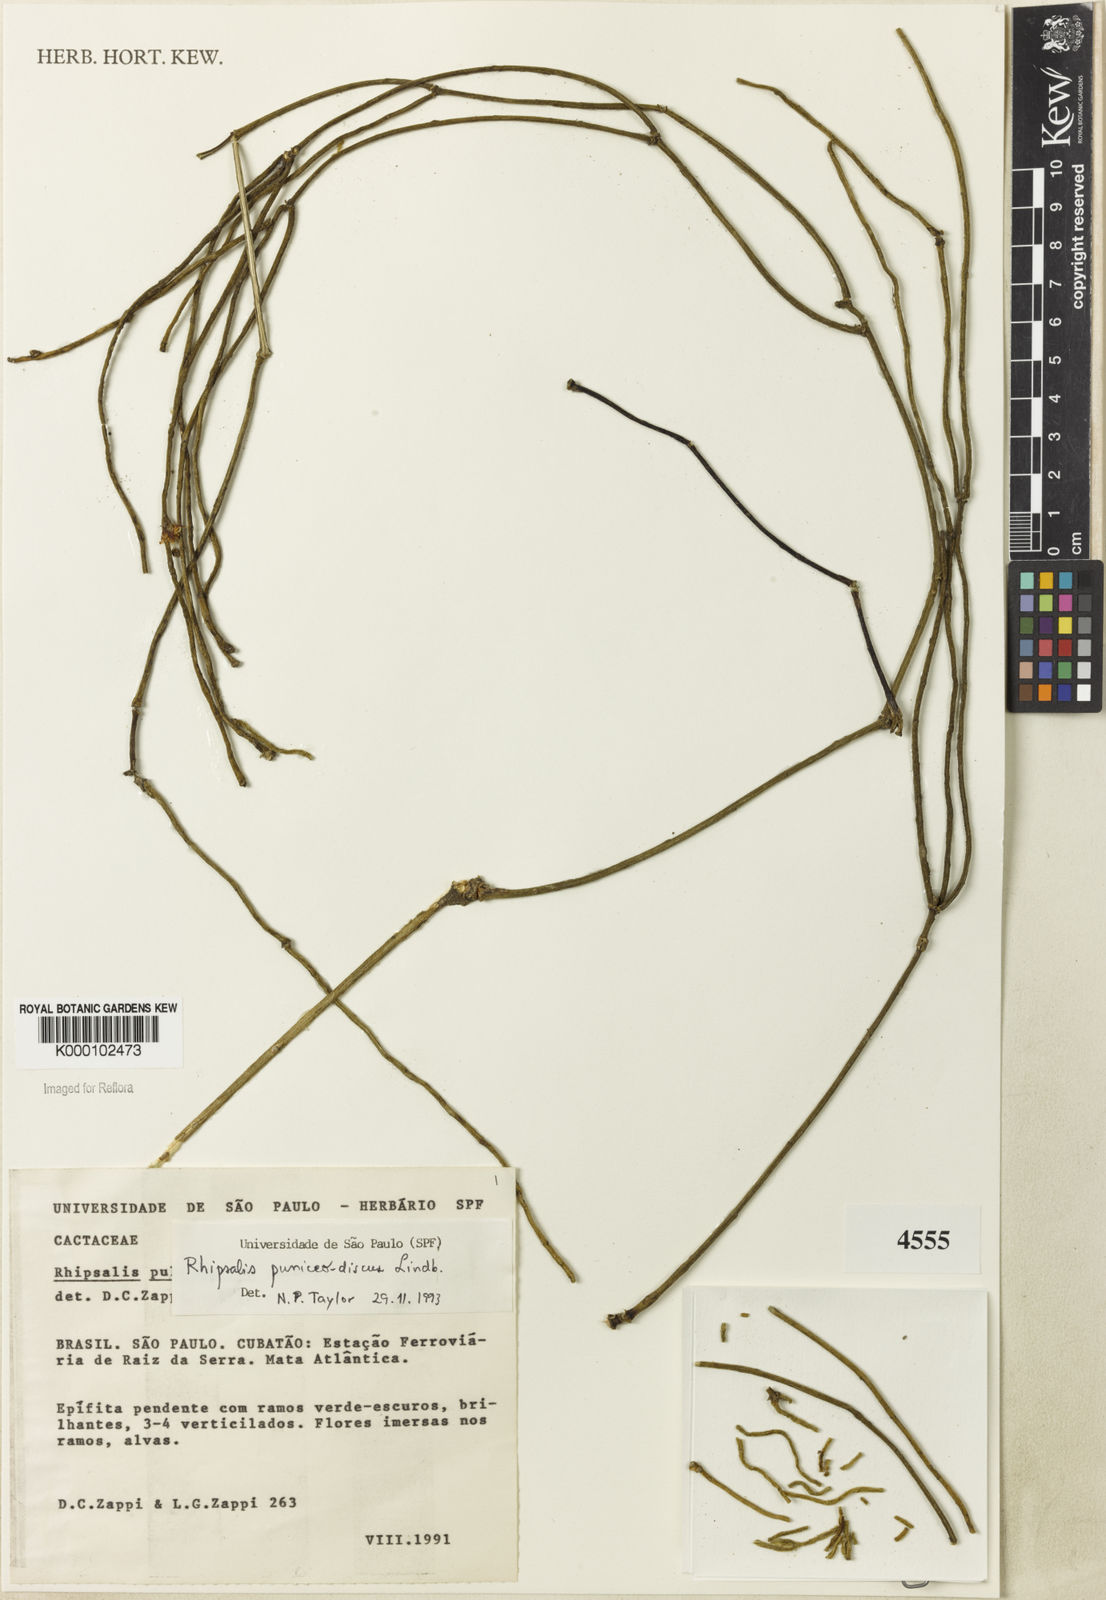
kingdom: Plantae
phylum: Tracheophyta
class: Magnoliopsida
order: Caryophyllales
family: Cactaceae
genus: Rhipsalis
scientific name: Rhipsalis puniceodiscus
